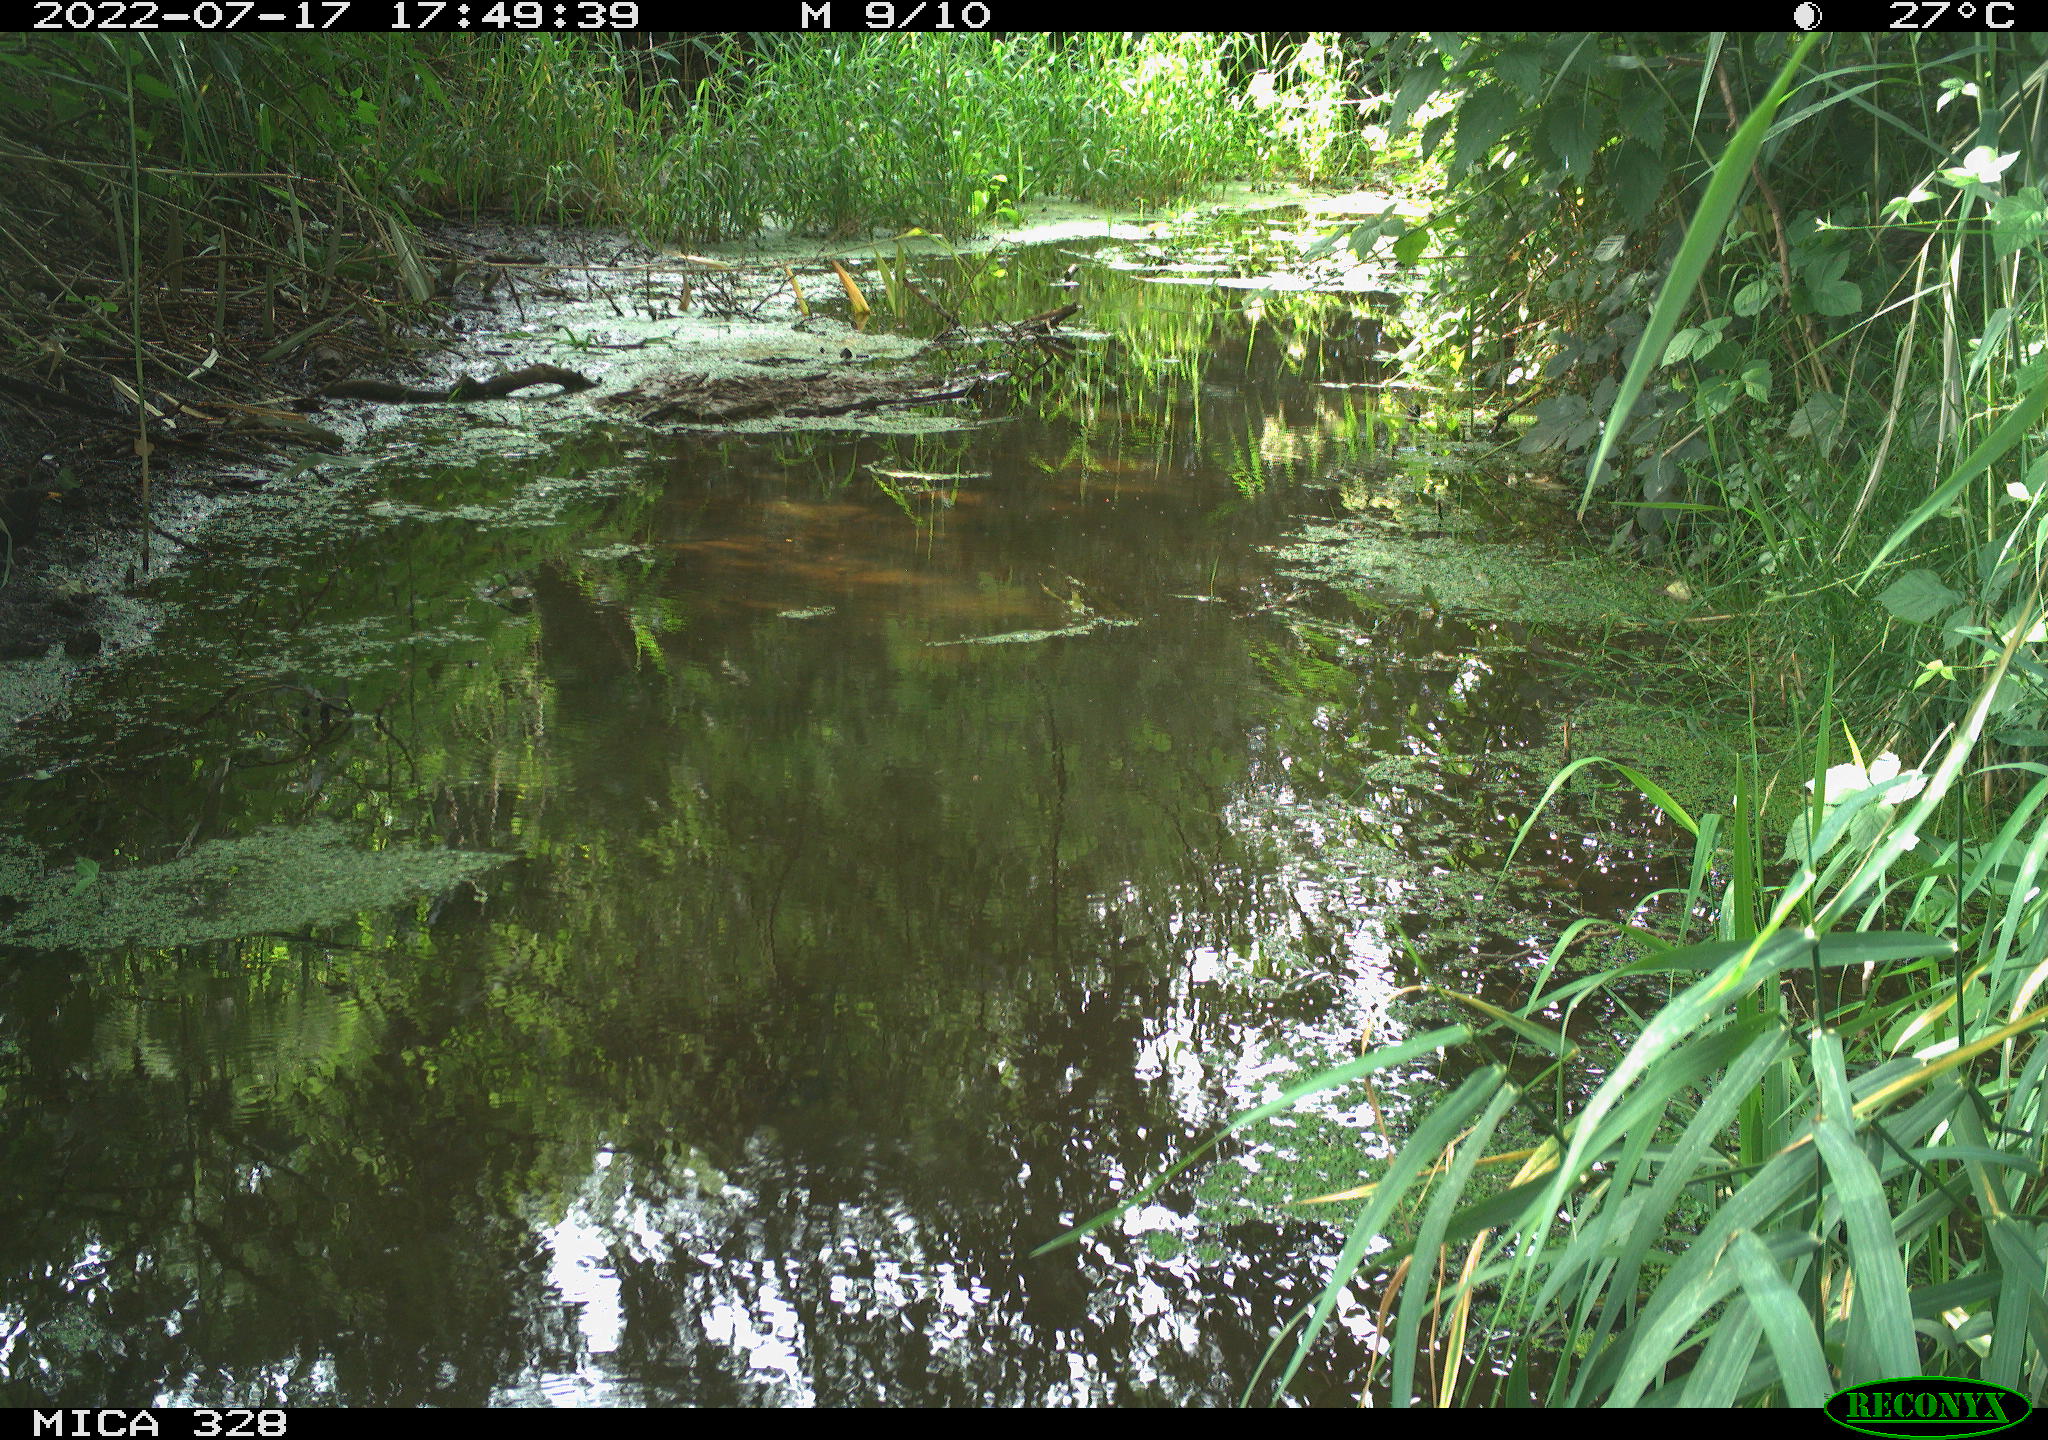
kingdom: Animalia
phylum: Chordata
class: Aves
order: Passeriformes
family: Paridae
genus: Parus
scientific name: Parus major
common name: Great tit
